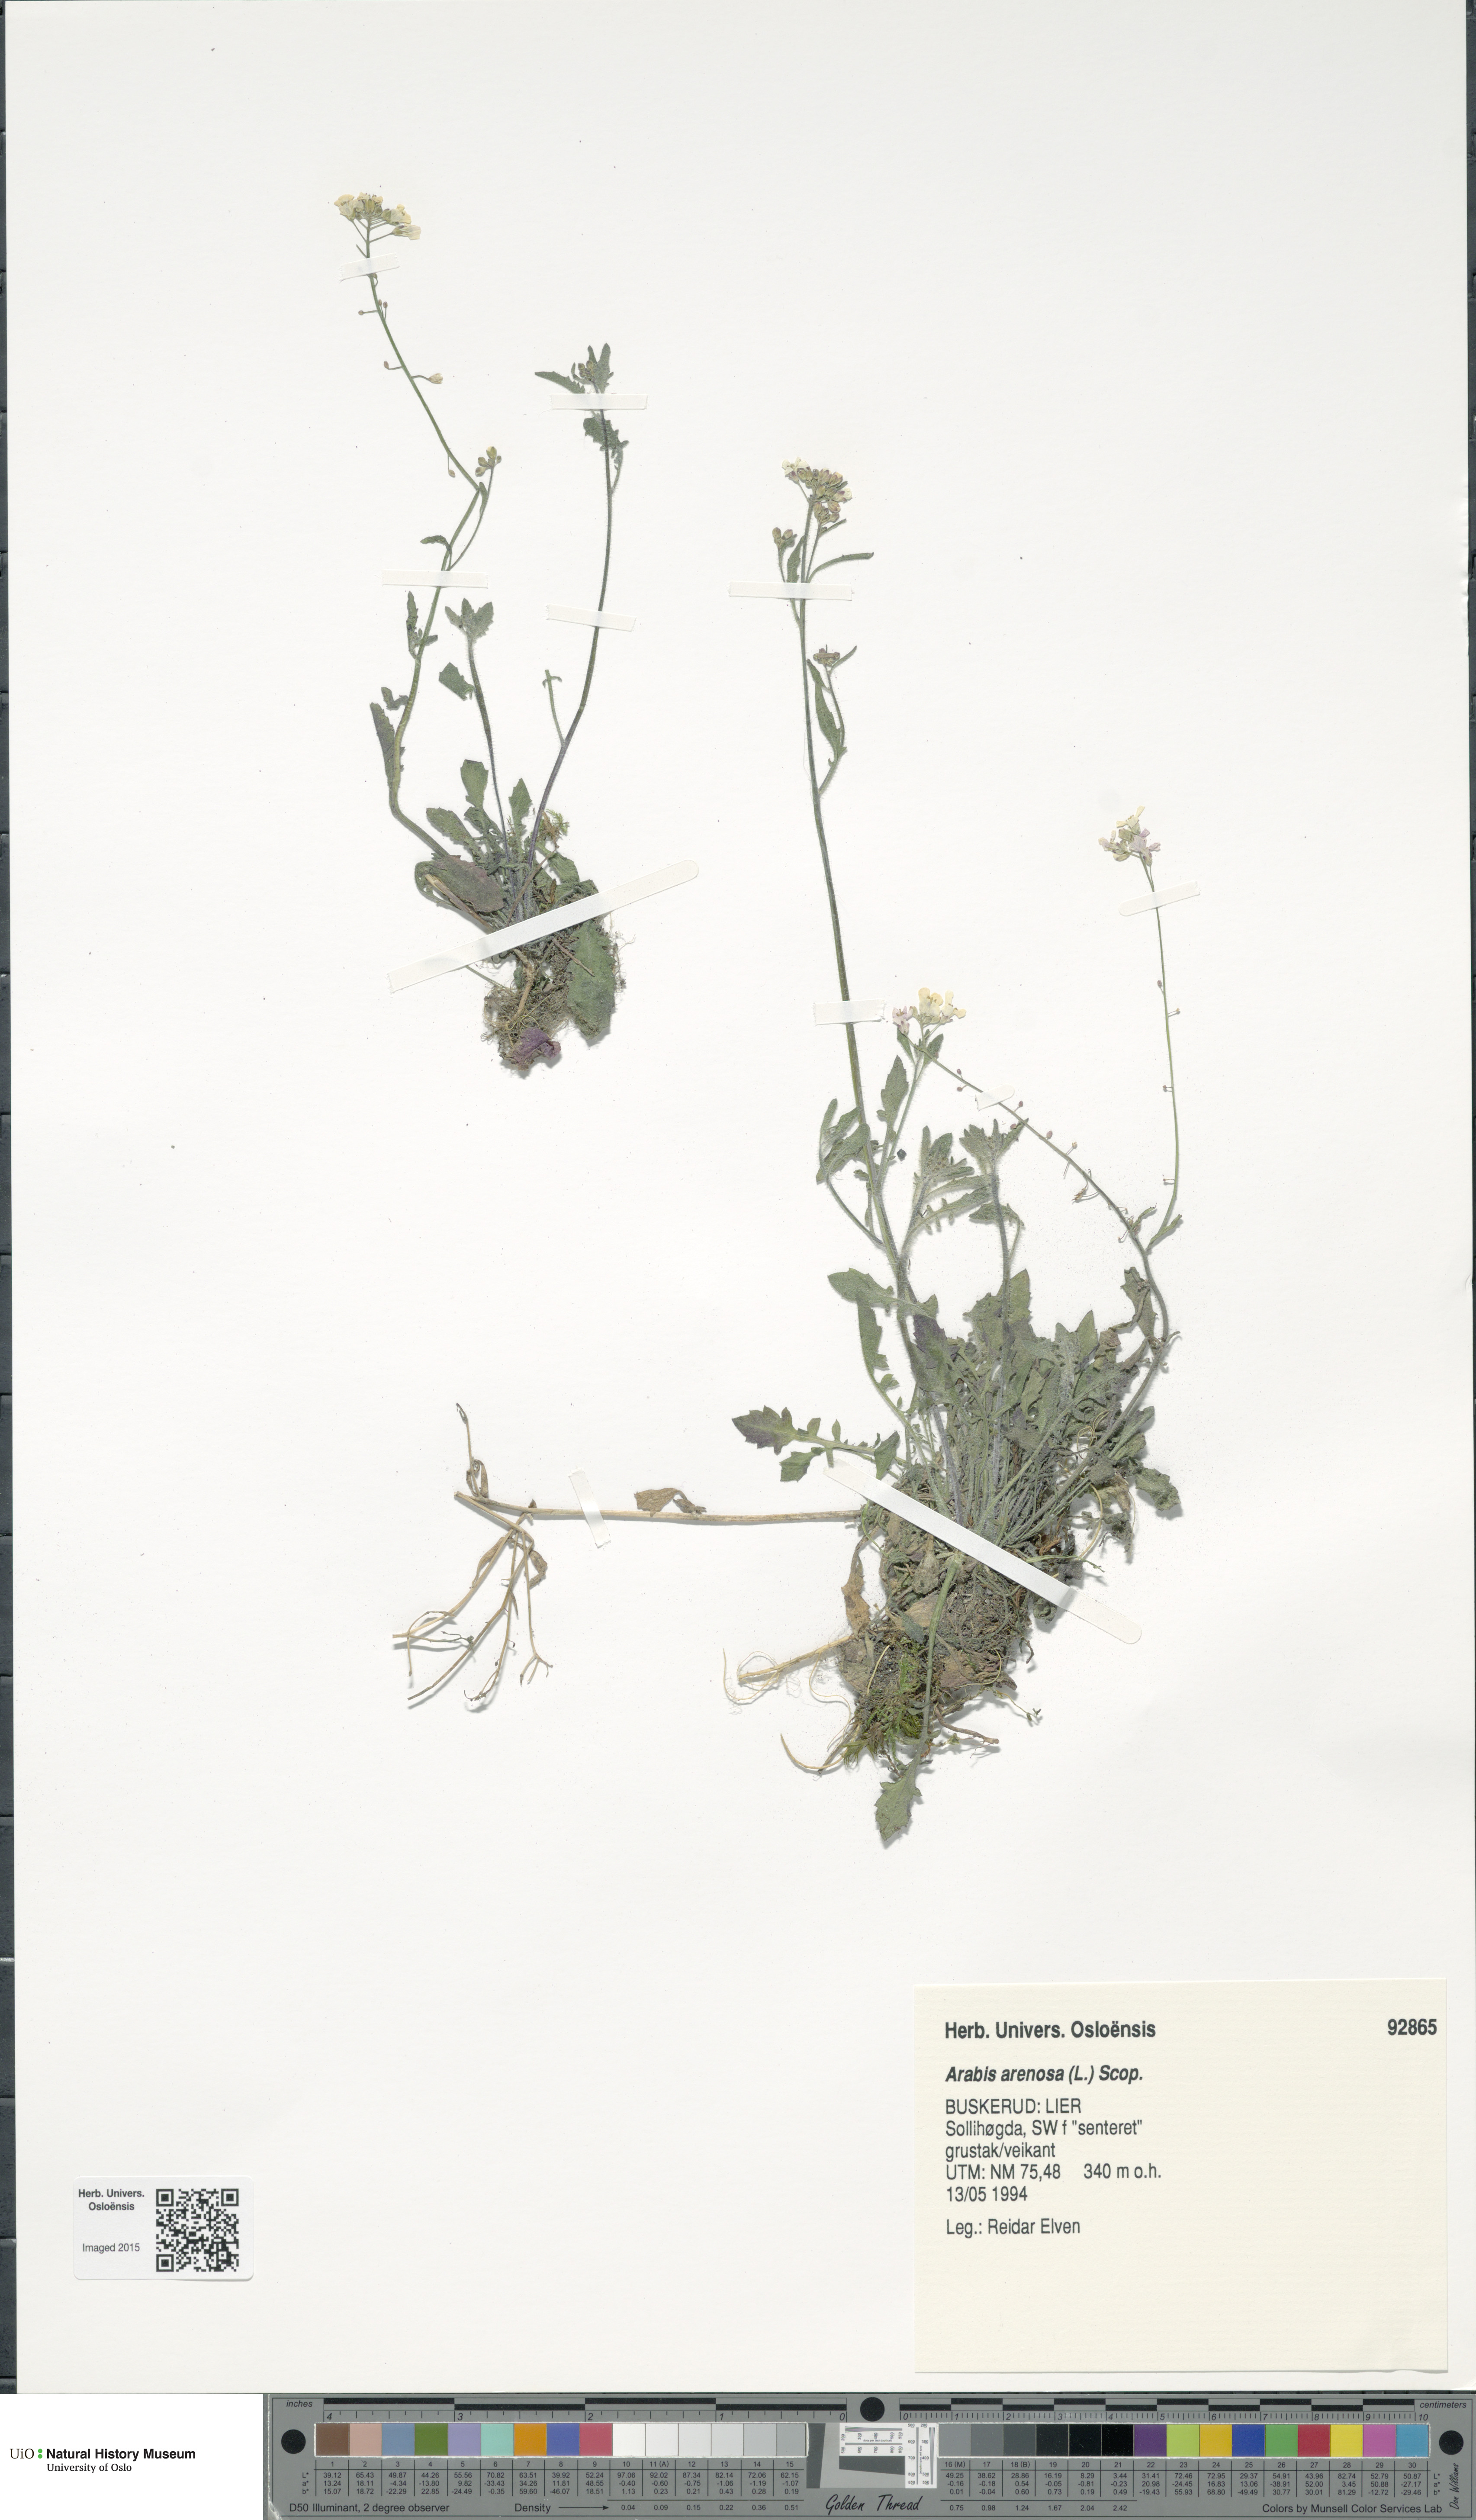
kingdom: Plantae
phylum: Tracheophyta
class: Magnoliopsida
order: Brassicales
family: Brassicaceae
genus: Arabidopsis
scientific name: Arabidopsis arenosa
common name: Sand rock-cress
